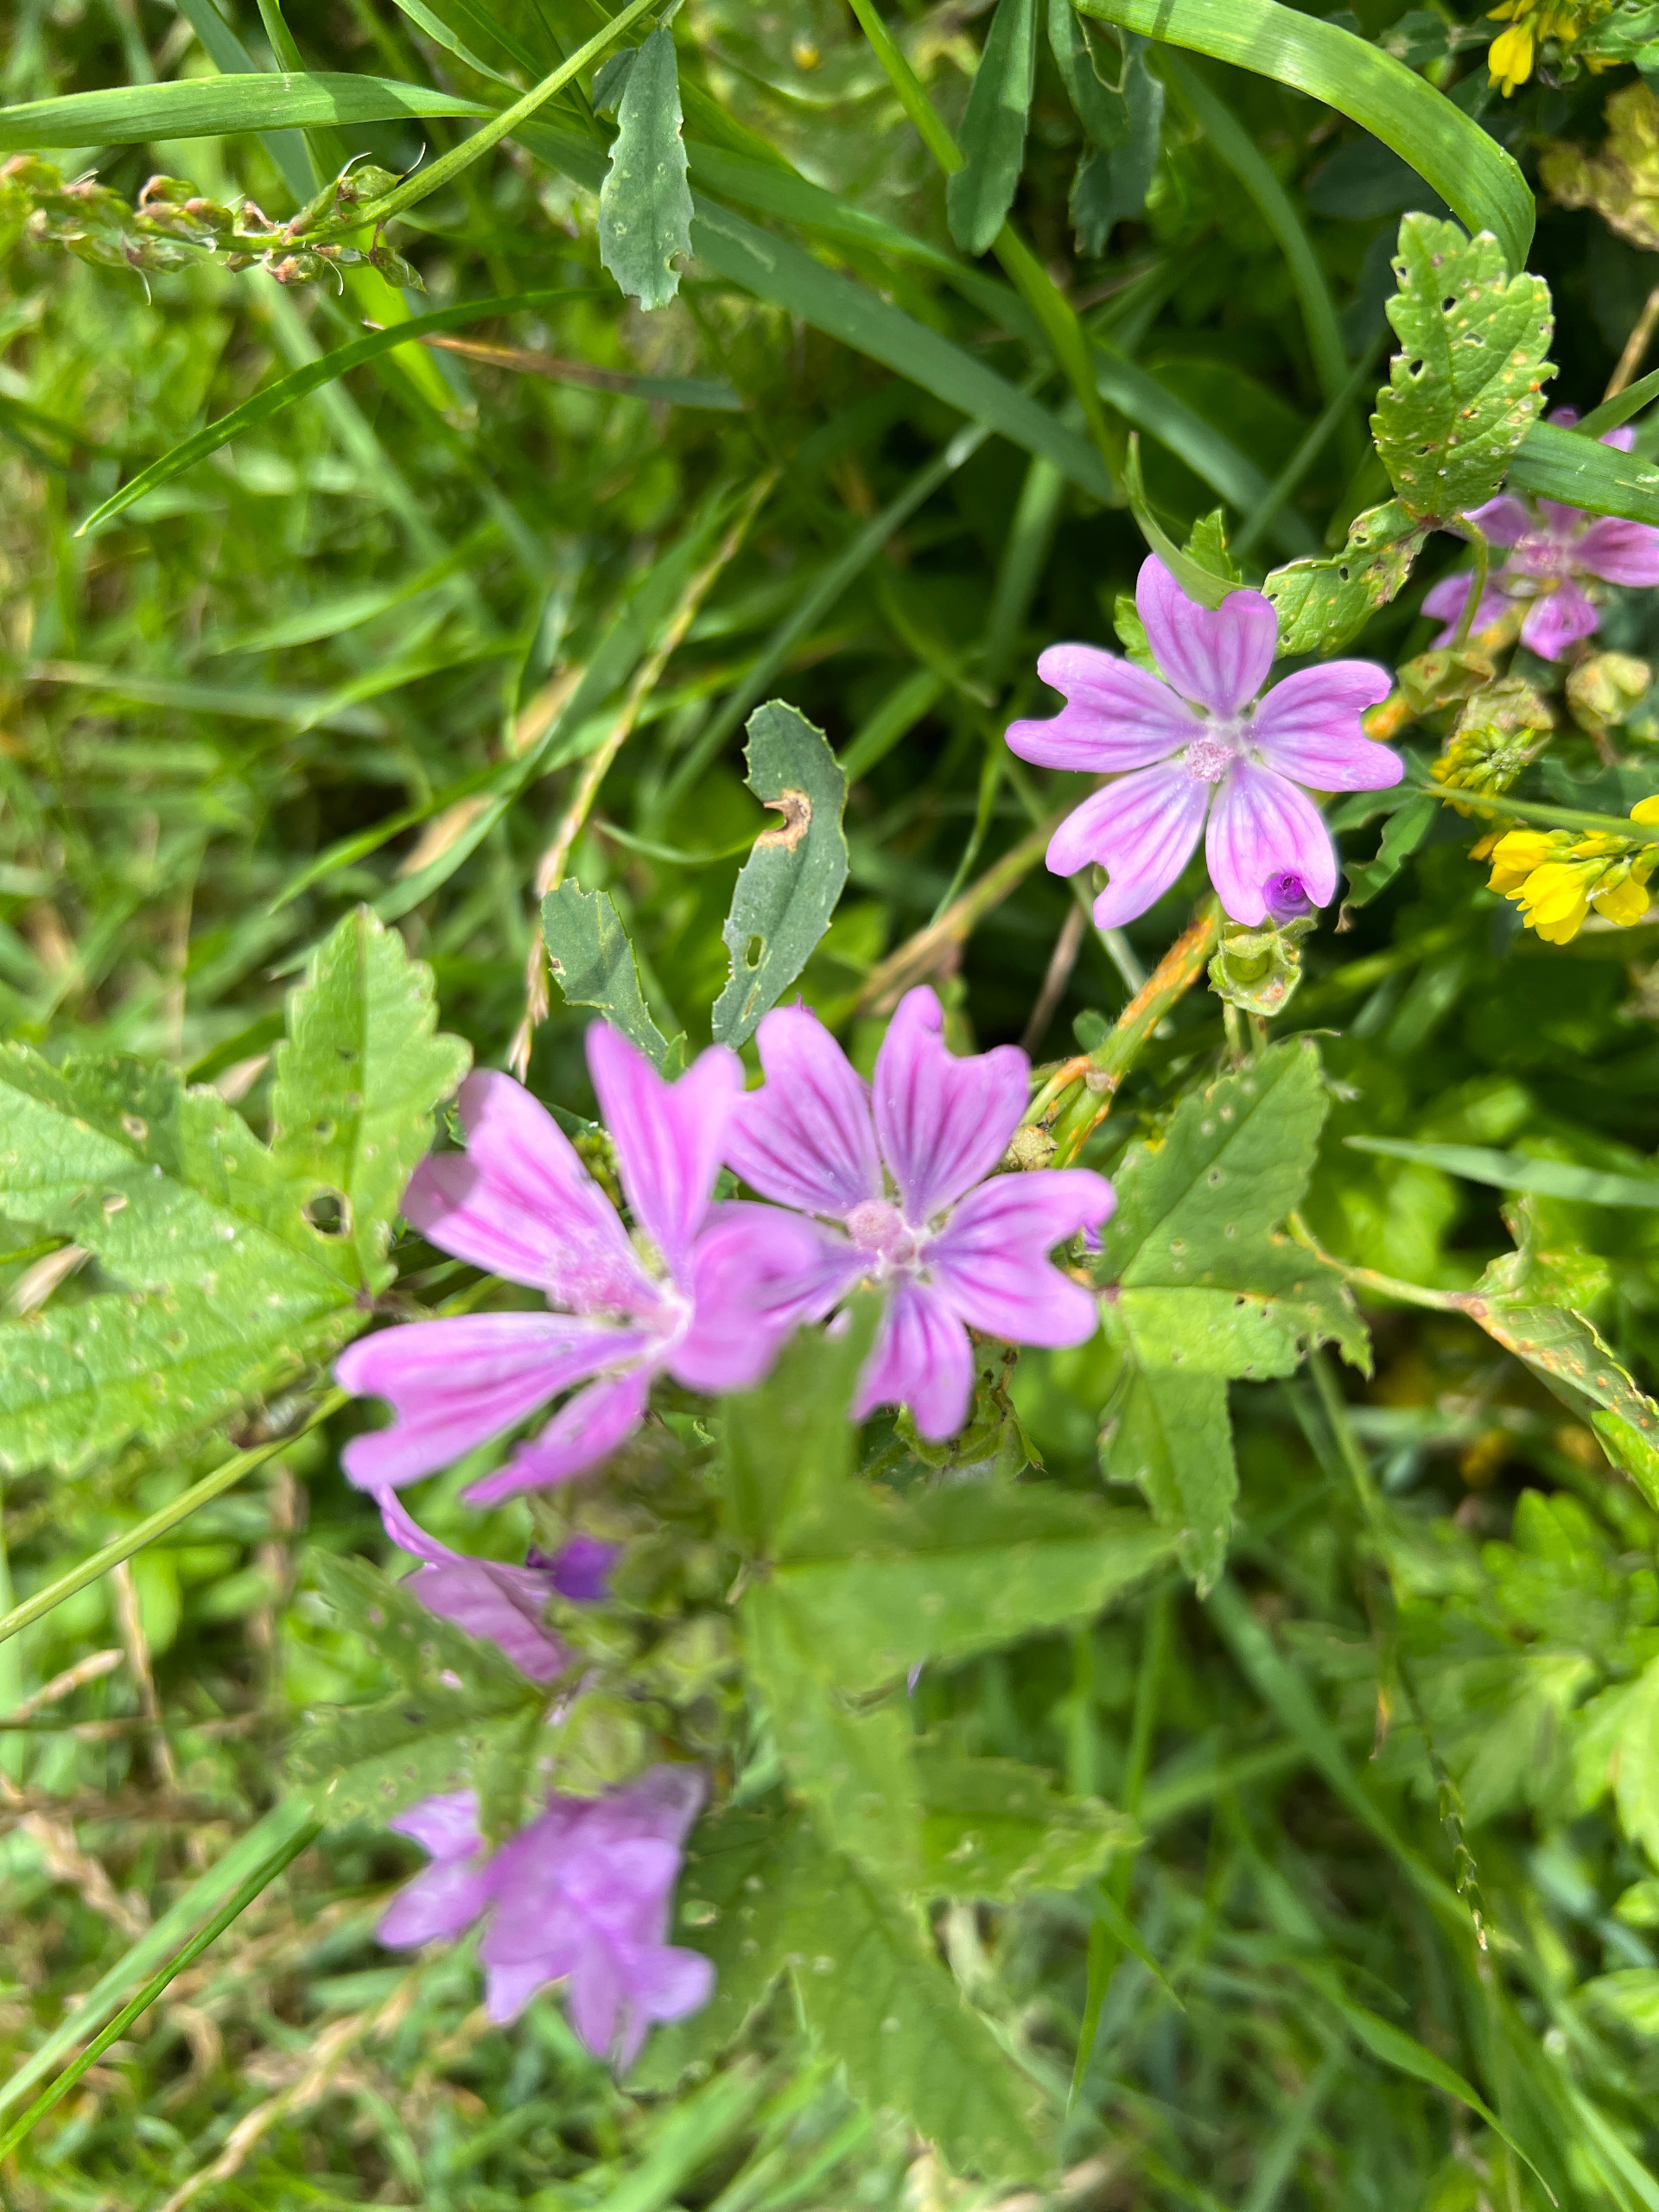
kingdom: Plantae
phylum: Tracheophyta
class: Magnoliopsida
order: Malvales
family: Malvaceae
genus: Malva
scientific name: Malva sylvestris
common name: Almindelig katost
